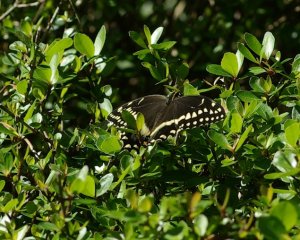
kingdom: Animalia
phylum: Arthropoda
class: Insecta
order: Lepidoptera
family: Papilionidae
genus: Pterourus
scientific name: Pterourus palamedes
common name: Palamedes Swallowtail
